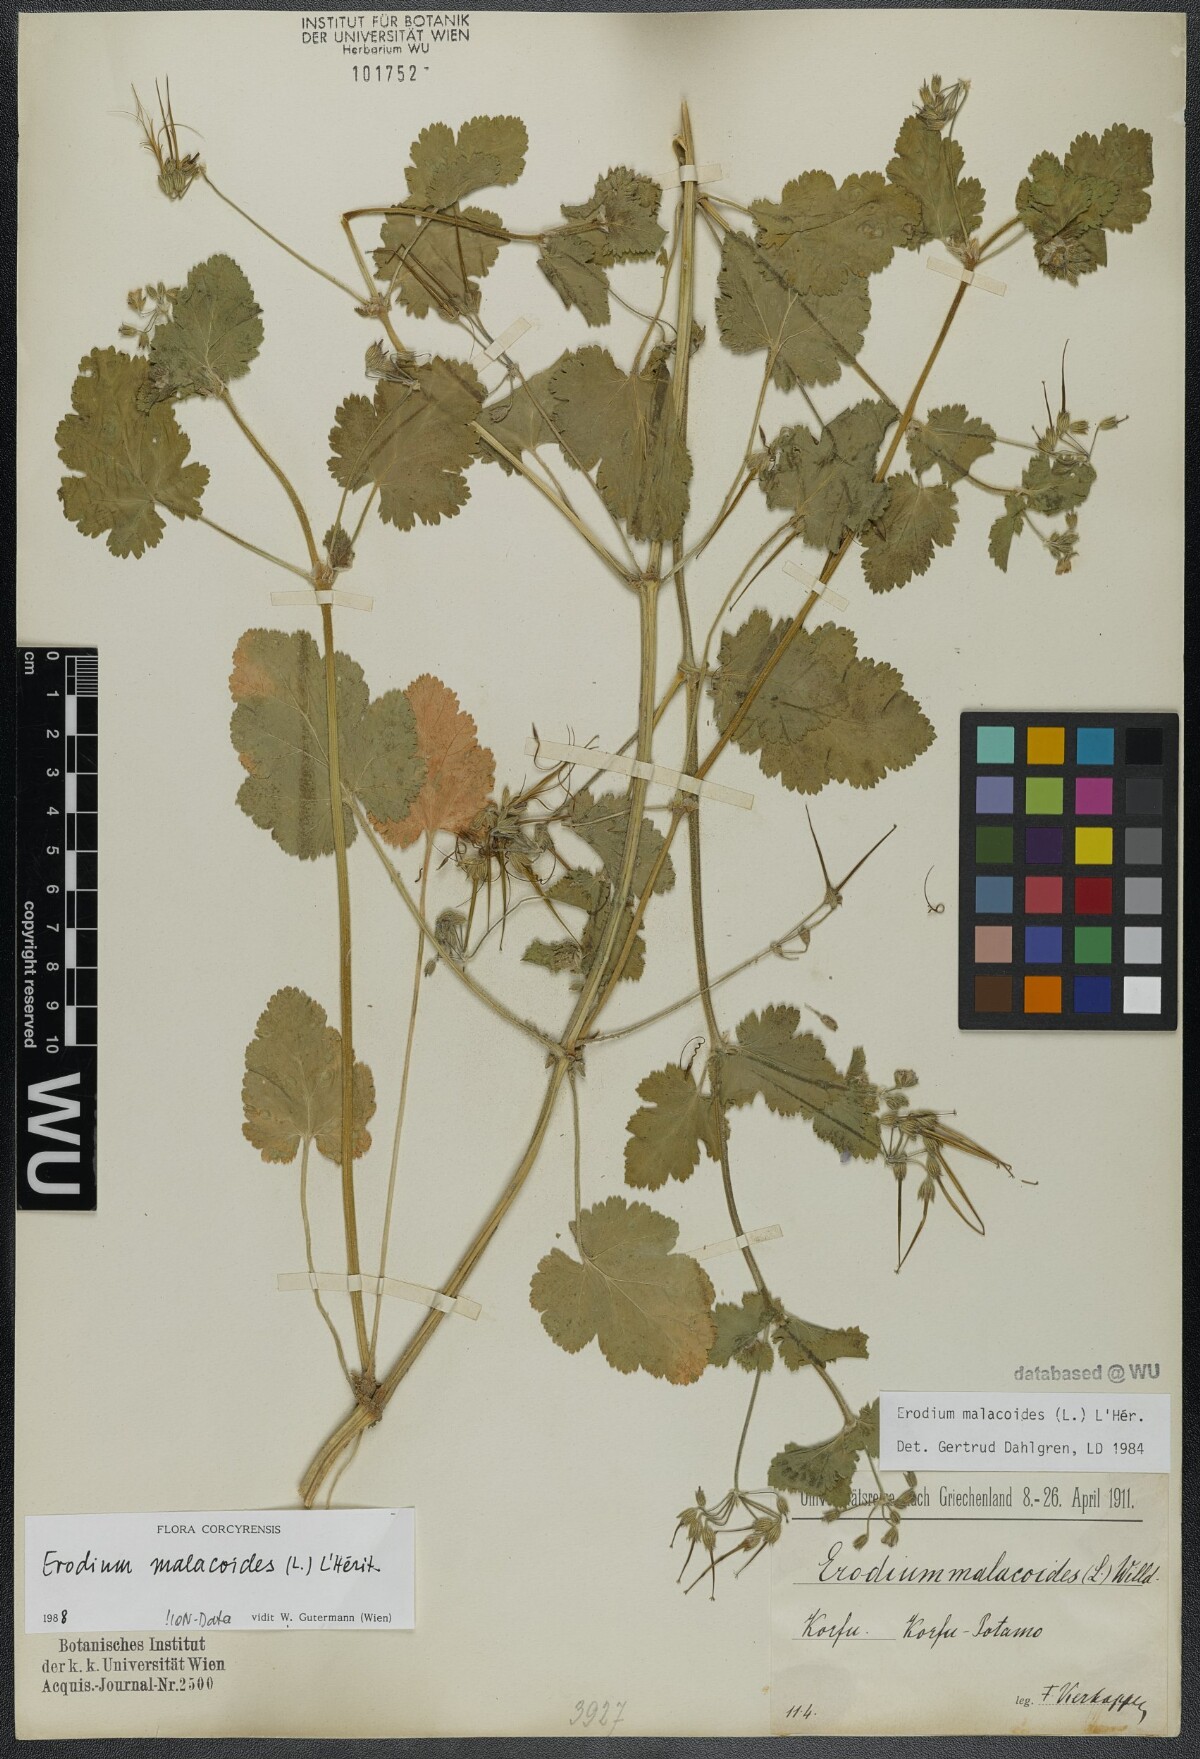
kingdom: Plantae
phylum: Tracheophyta
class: Magnoliopsida
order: Geraniales
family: Geraniaceae
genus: Erodium
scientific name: Erodium malacoides
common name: Soft stork's-bill
